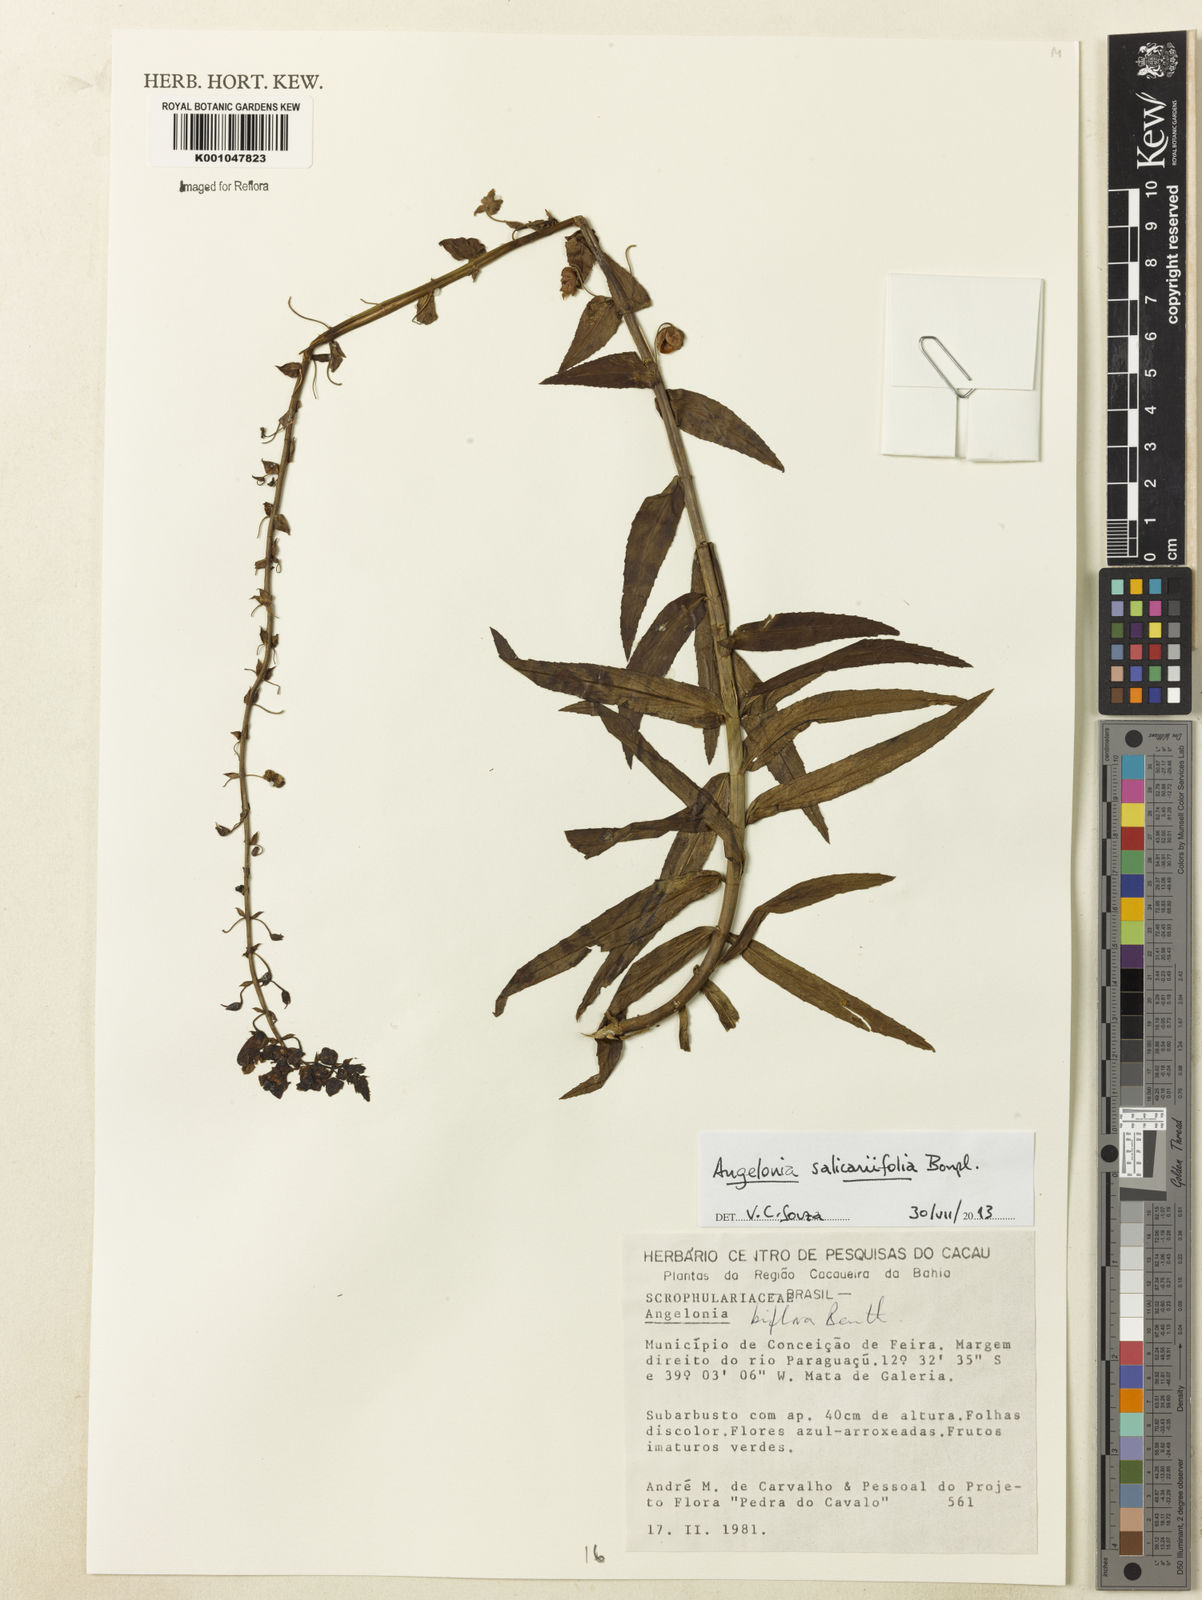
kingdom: Plantae
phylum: Tracheophyta
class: Magnoliopsida
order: Lamiales
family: Plantaginaceae
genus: Angelonia
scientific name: Angelonia salicariifolia
